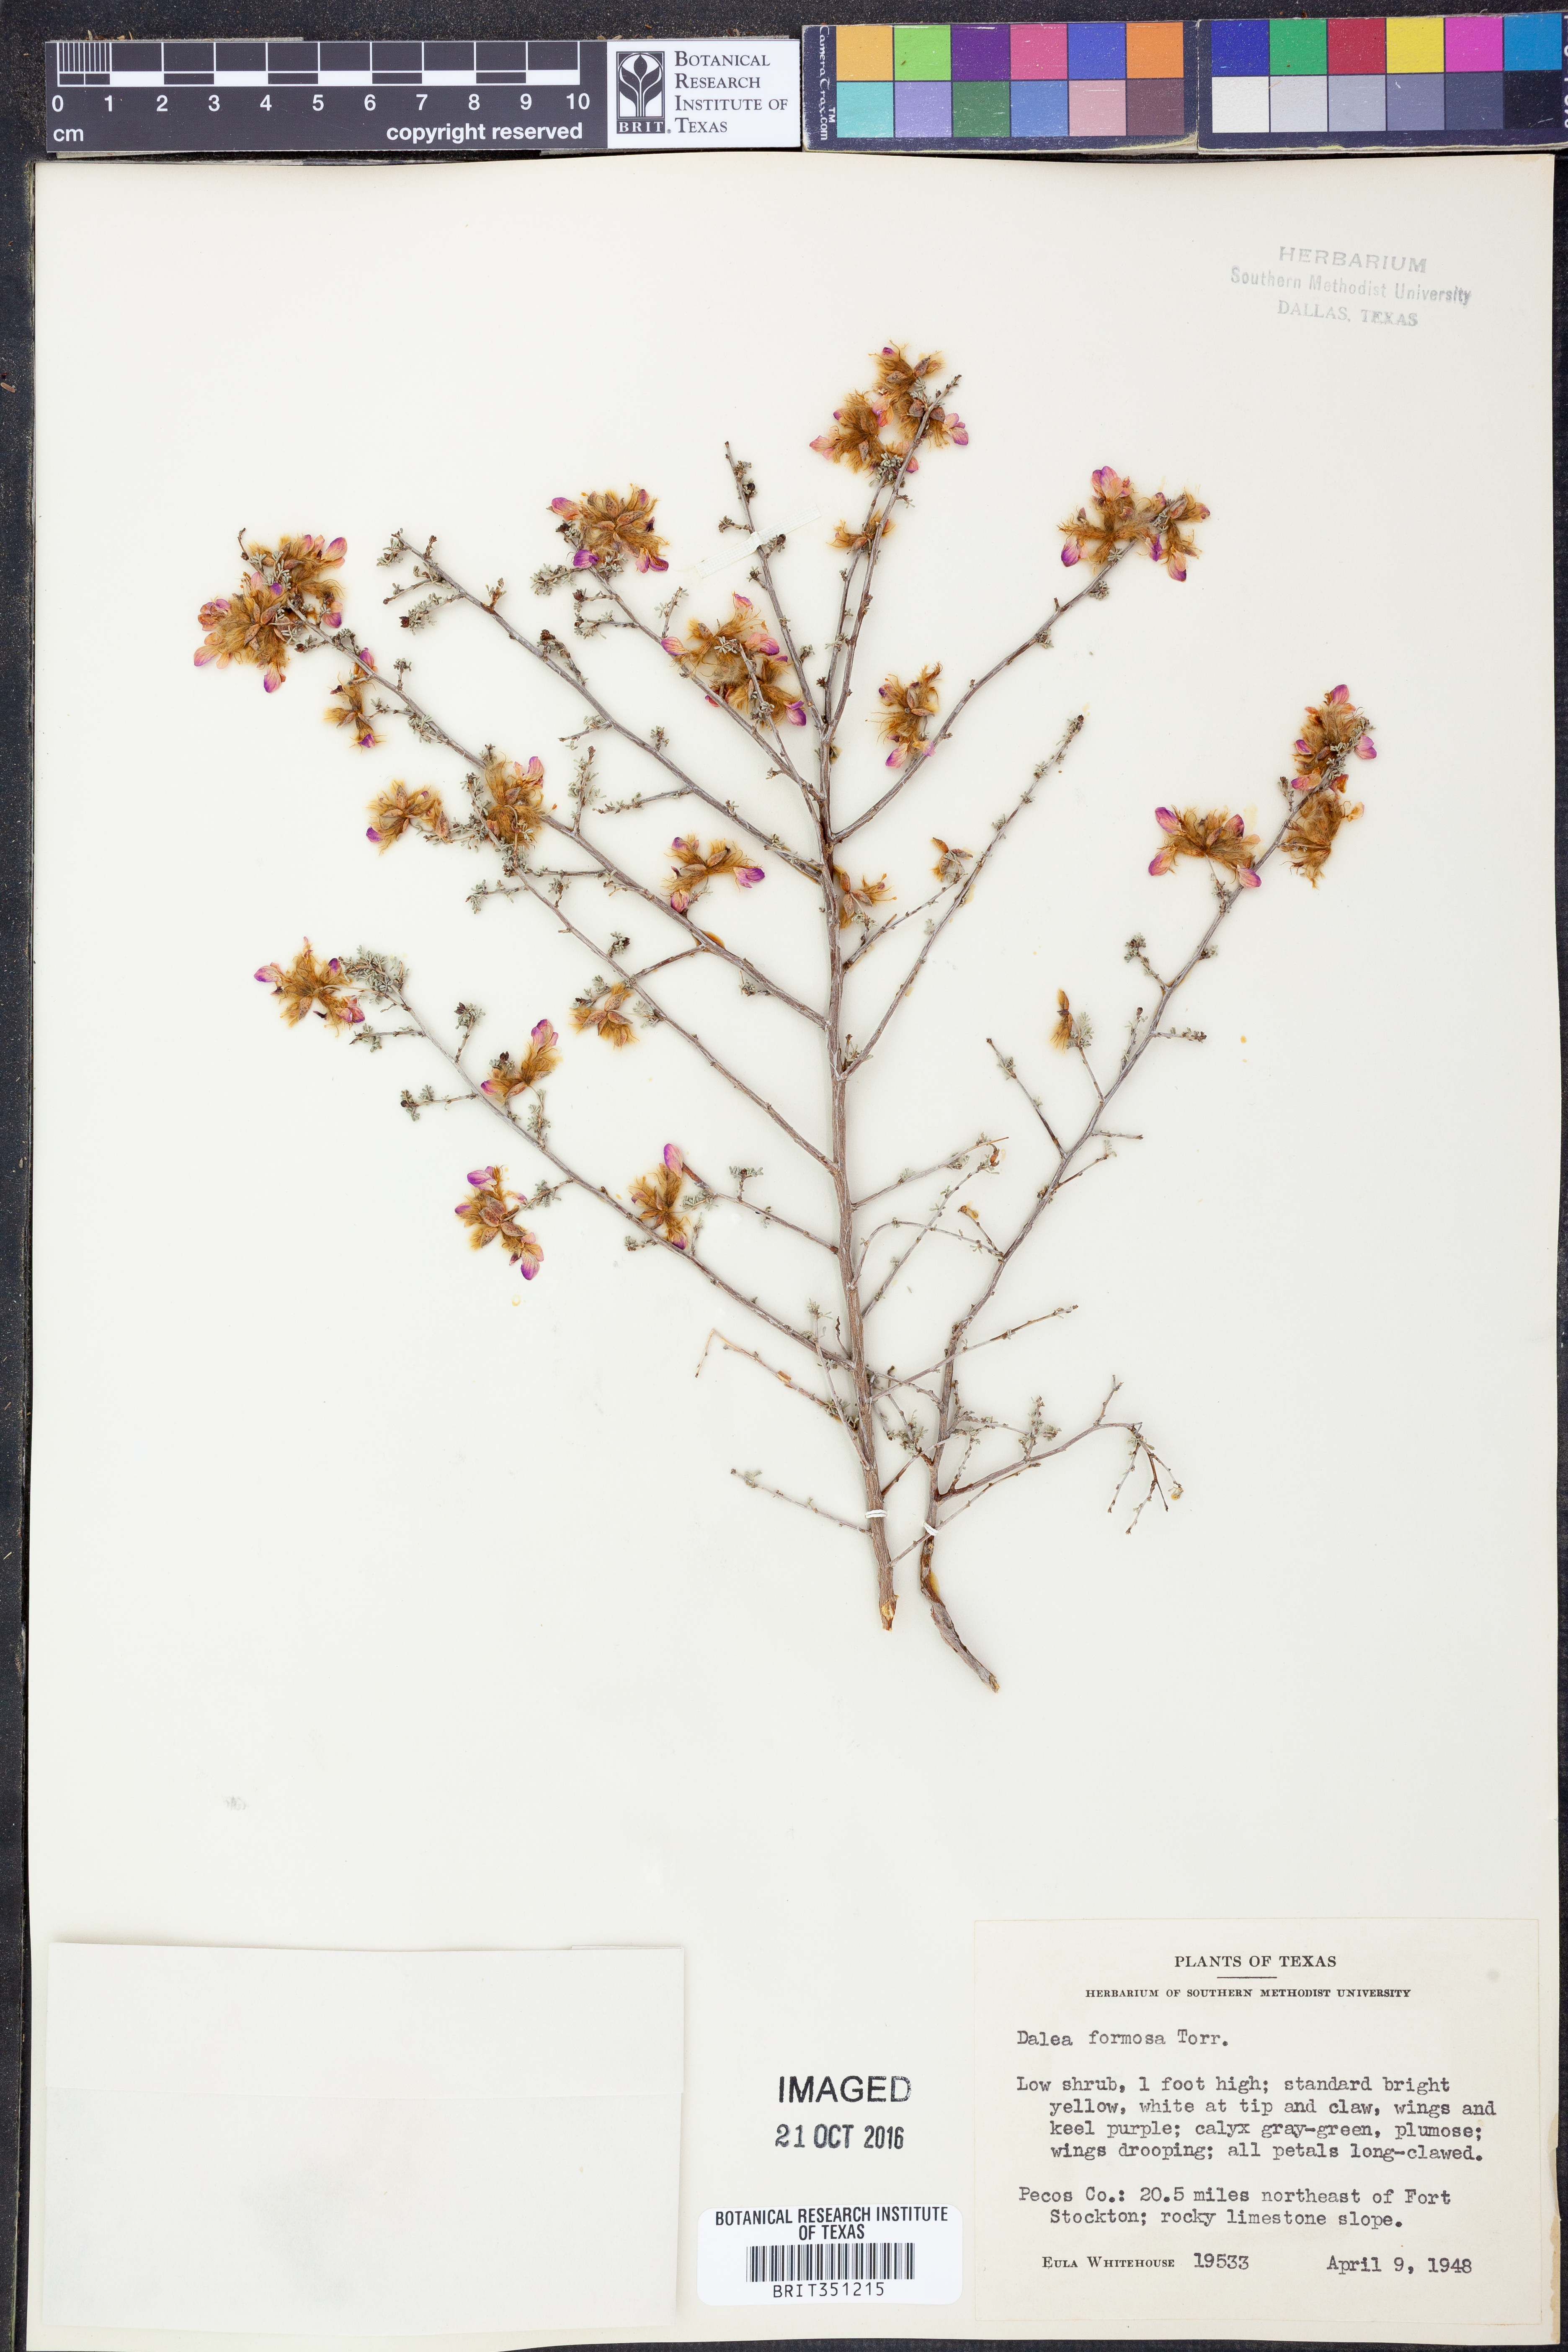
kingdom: Plantae
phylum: Tracheophyta
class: Magnoliopsida
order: Fabales
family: Fabaceae
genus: Dalea
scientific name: Dalea formosa
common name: Feather-plume dalea
